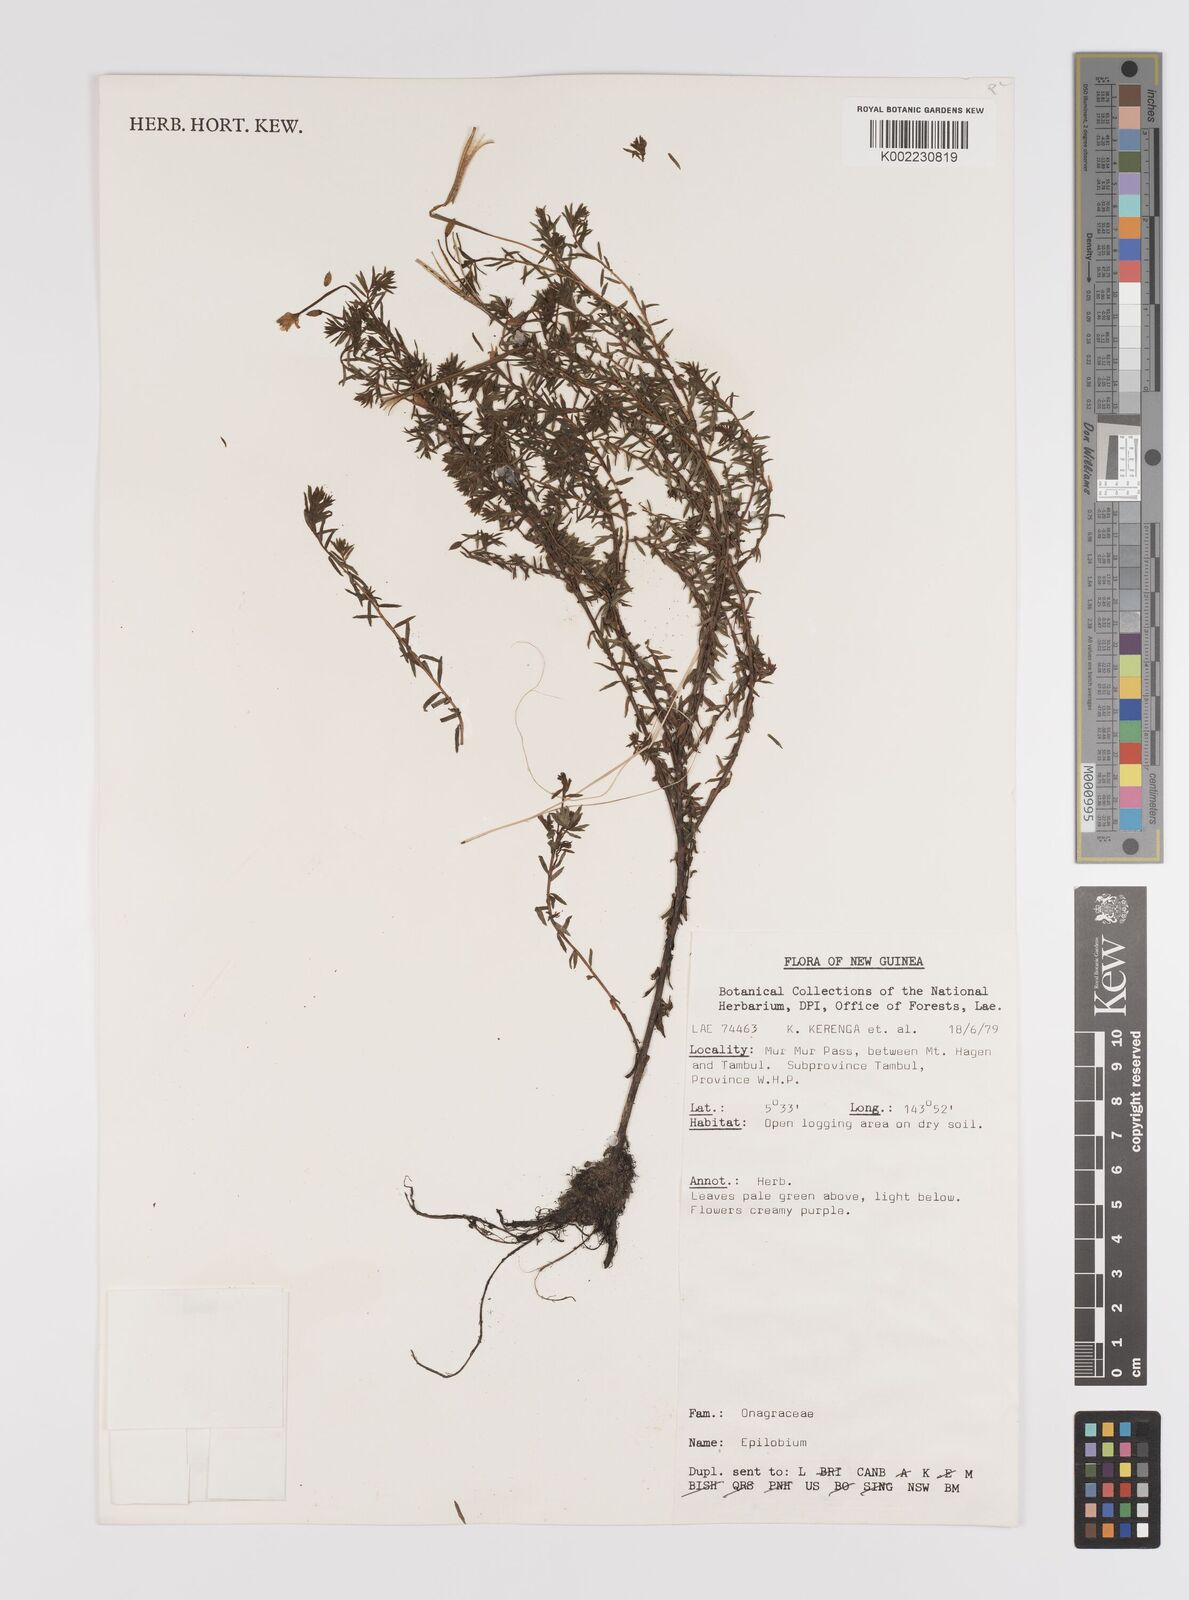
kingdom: Plantae
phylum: Tracheophyta
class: Magnoliopsida
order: Myrtales
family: Onagraceae
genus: Epilobium
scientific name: Epilobium
